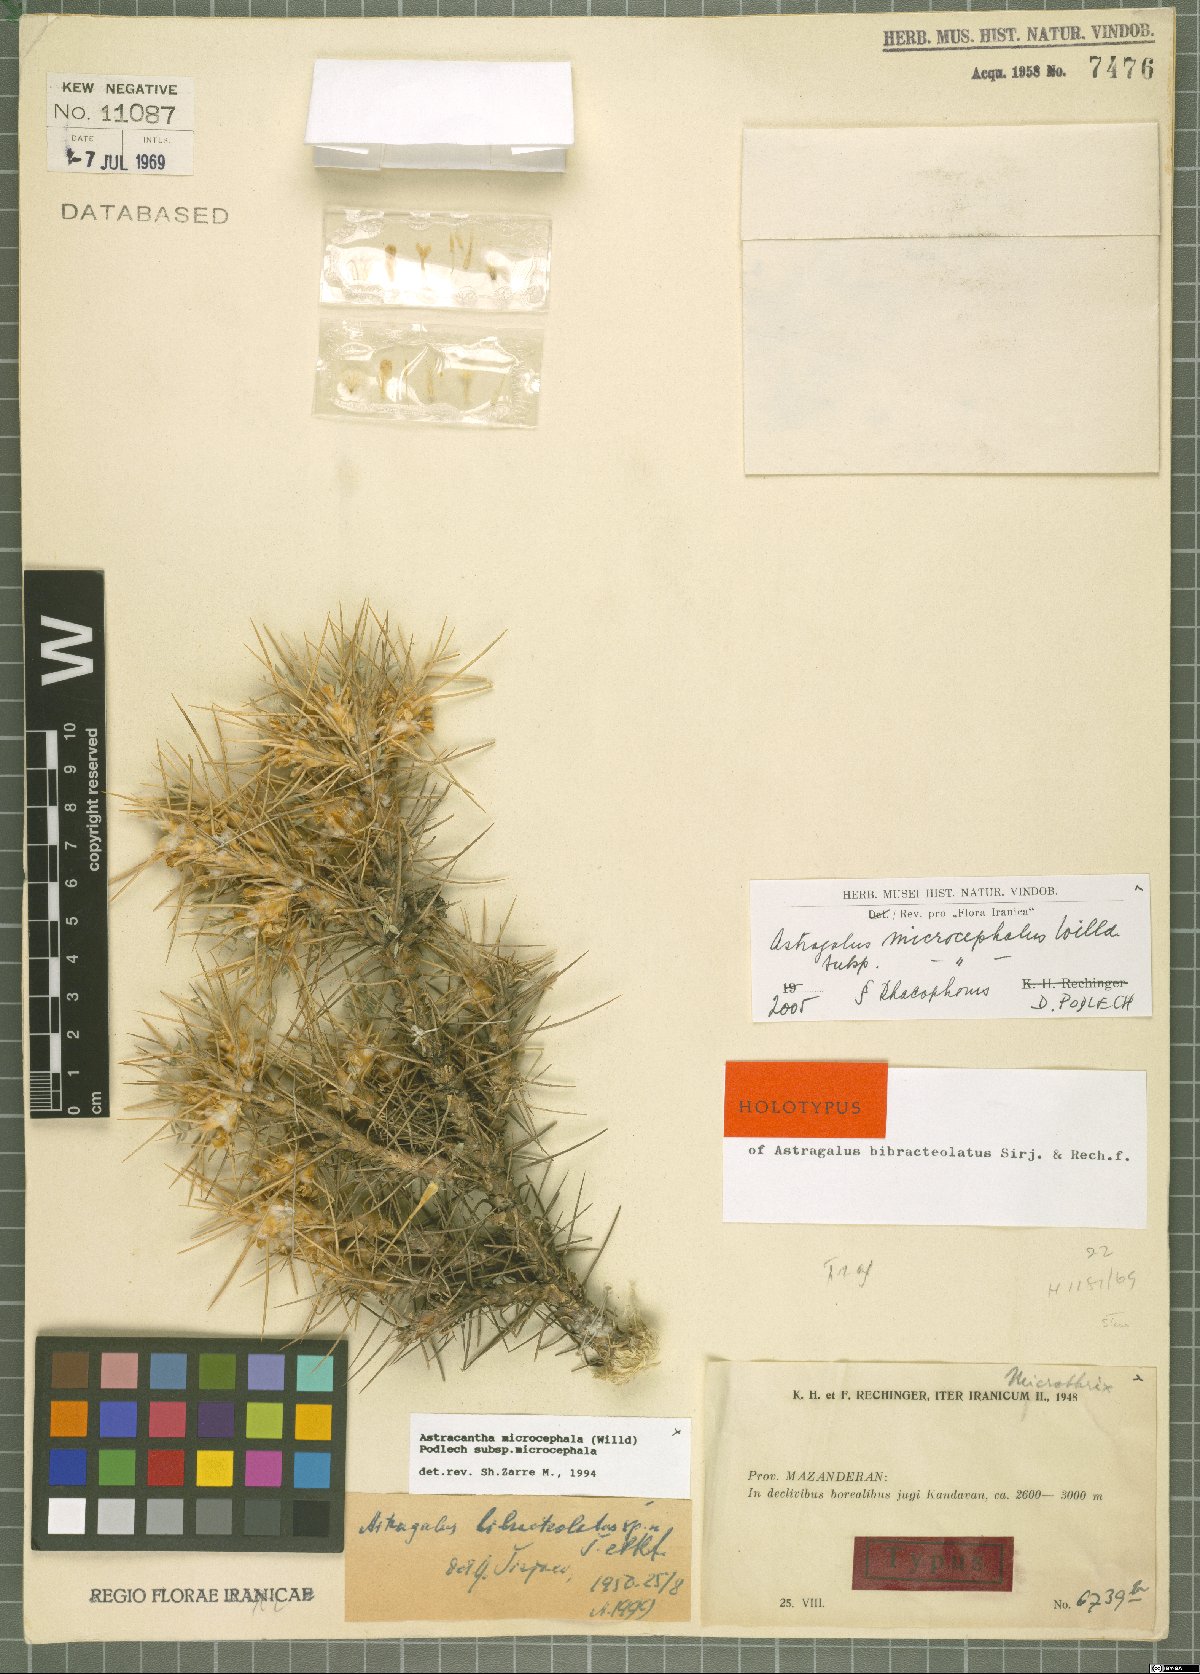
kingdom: Plantae
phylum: Tracheophyta
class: Magnoliopsida
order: Fabales
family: Fabaceae
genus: Astragalus
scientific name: Astragalus microcephalus
